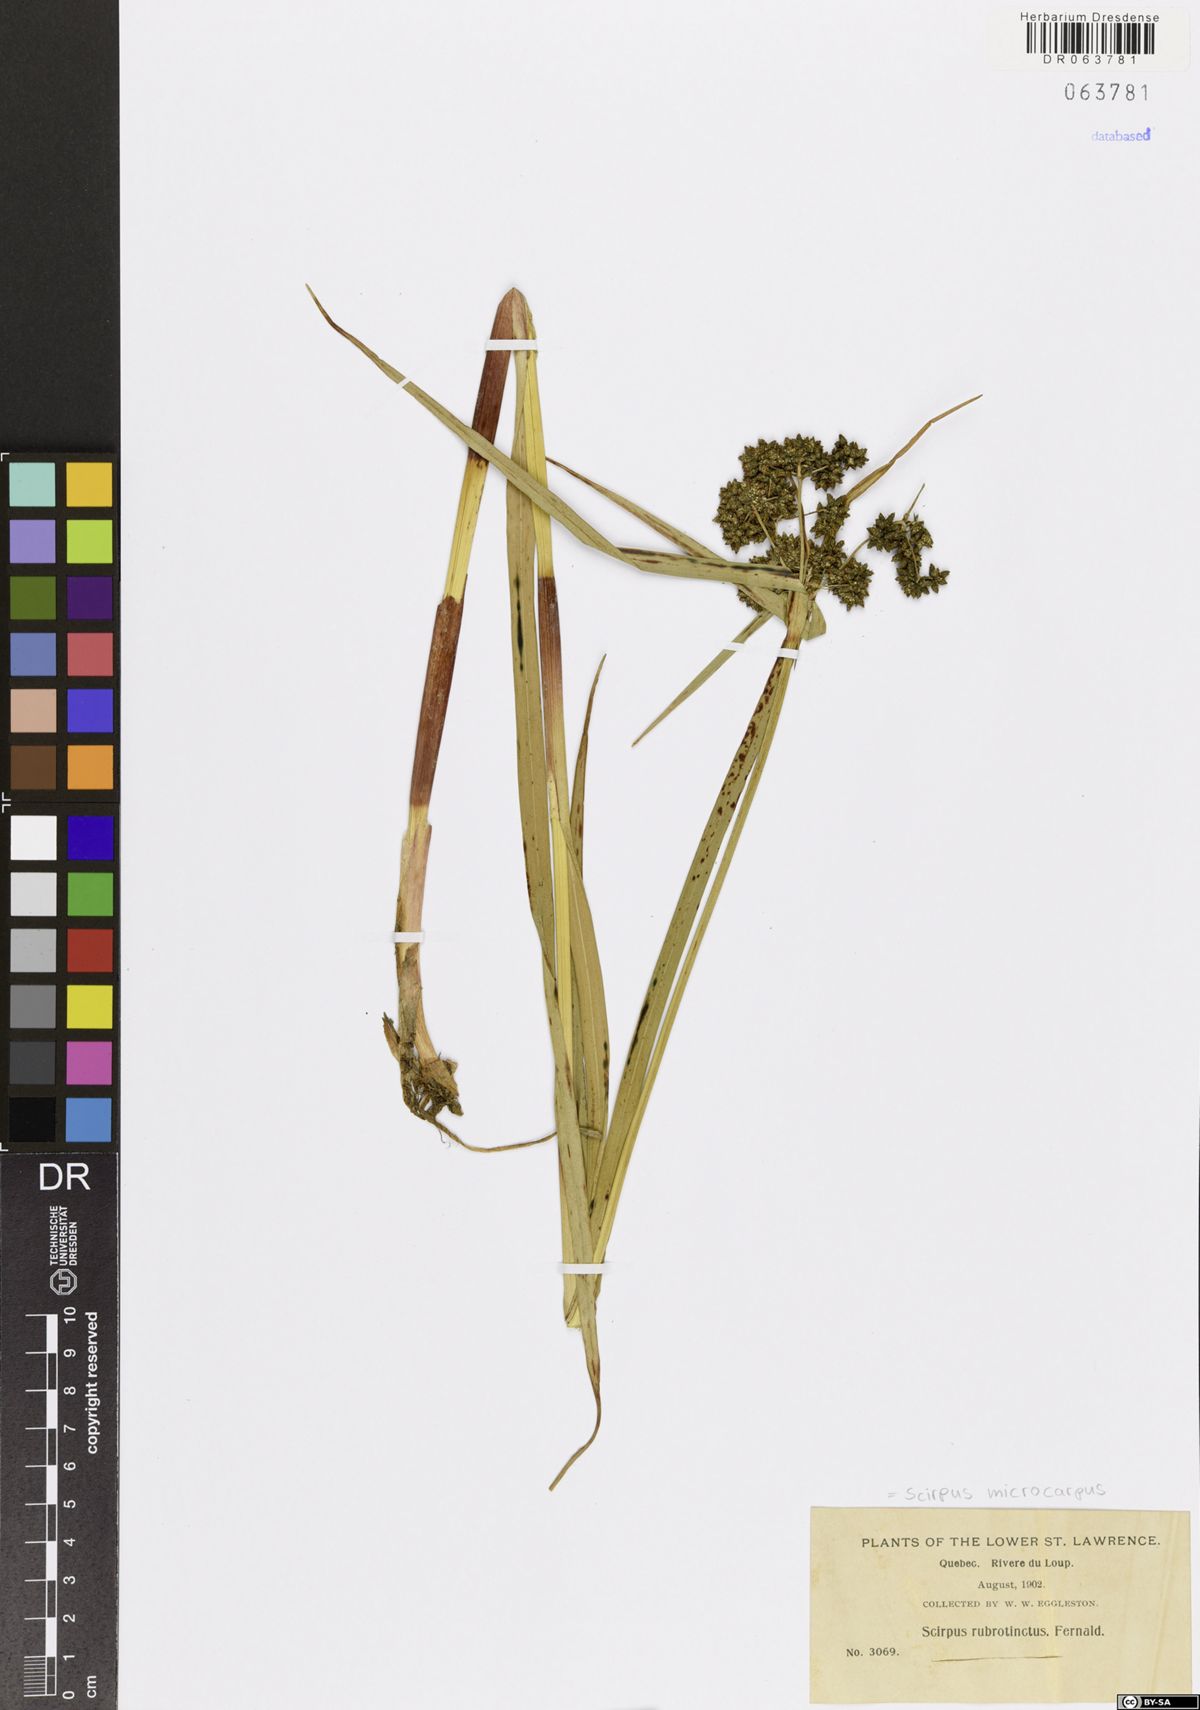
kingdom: Plantae
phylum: Tracheophyta
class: Liliopsida
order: Poales
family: Cyperaceae
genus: Scirpus
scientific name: Scirpus microcarpus
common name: Panicled bulrush
